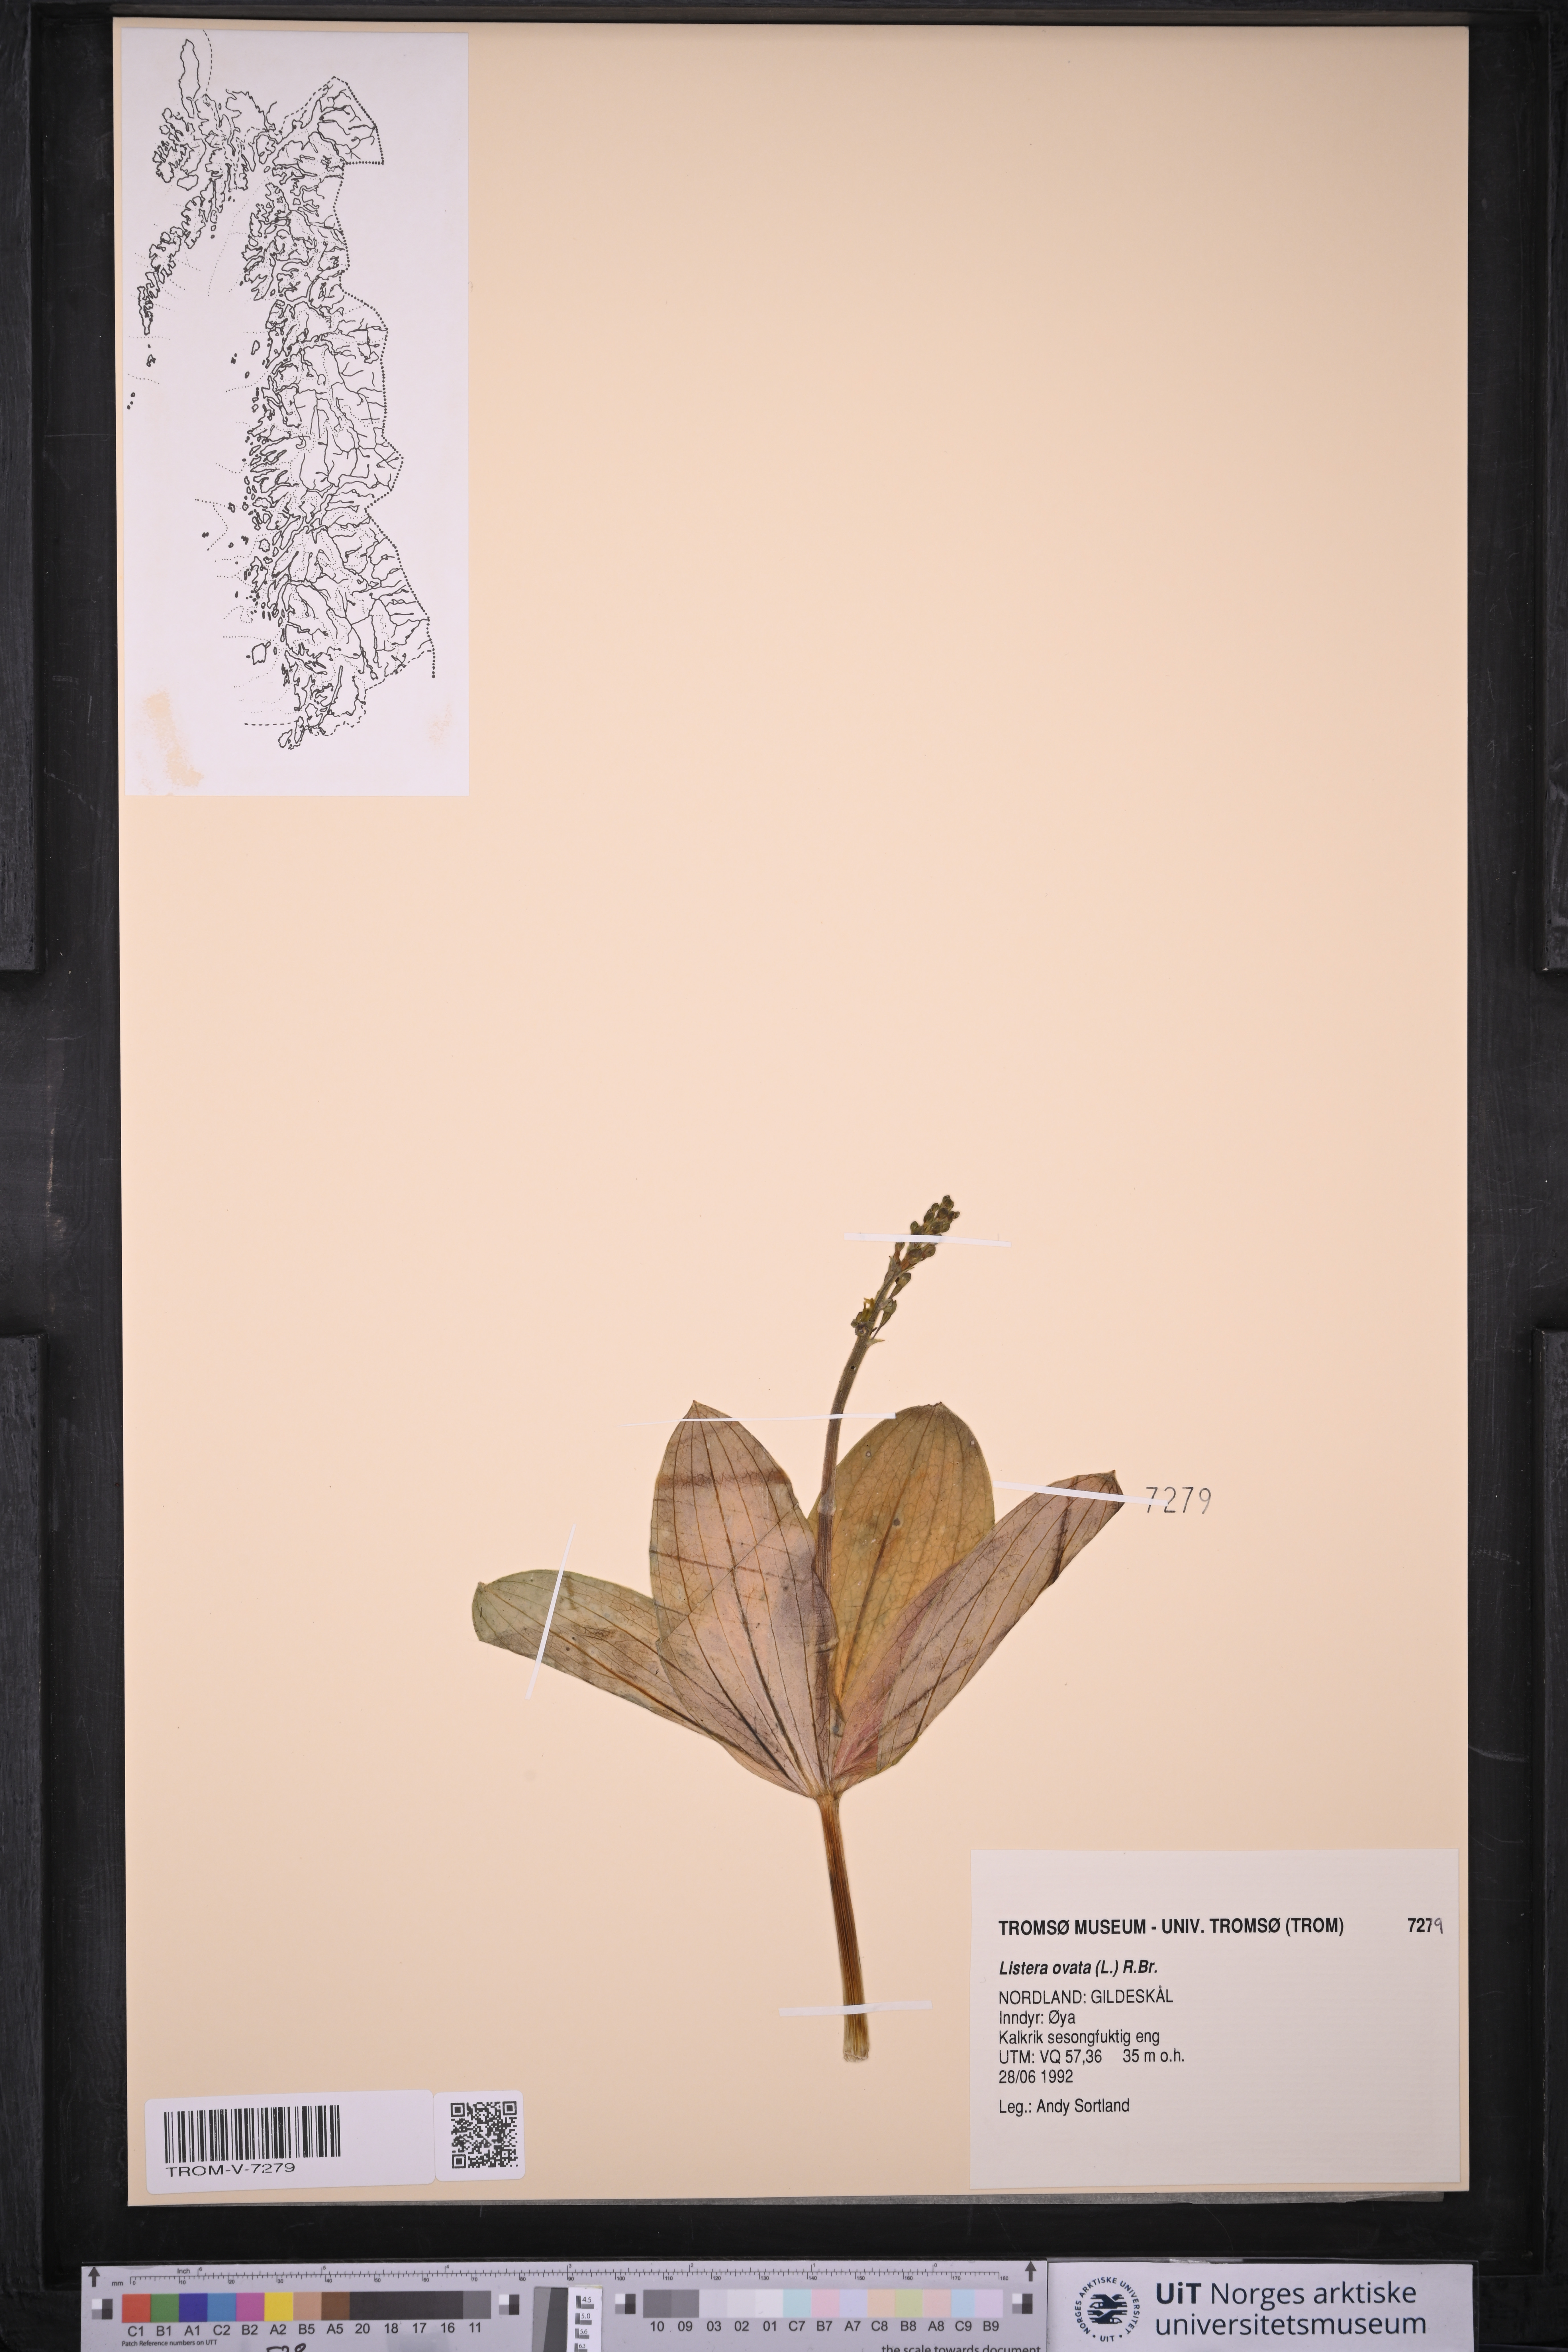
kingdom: Plantae
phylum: Tracheophyta
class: Liliopsida
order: Asparagales
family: Orchidaceae
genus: Neottia
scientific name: Neottia ovata
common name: Common twayblade
